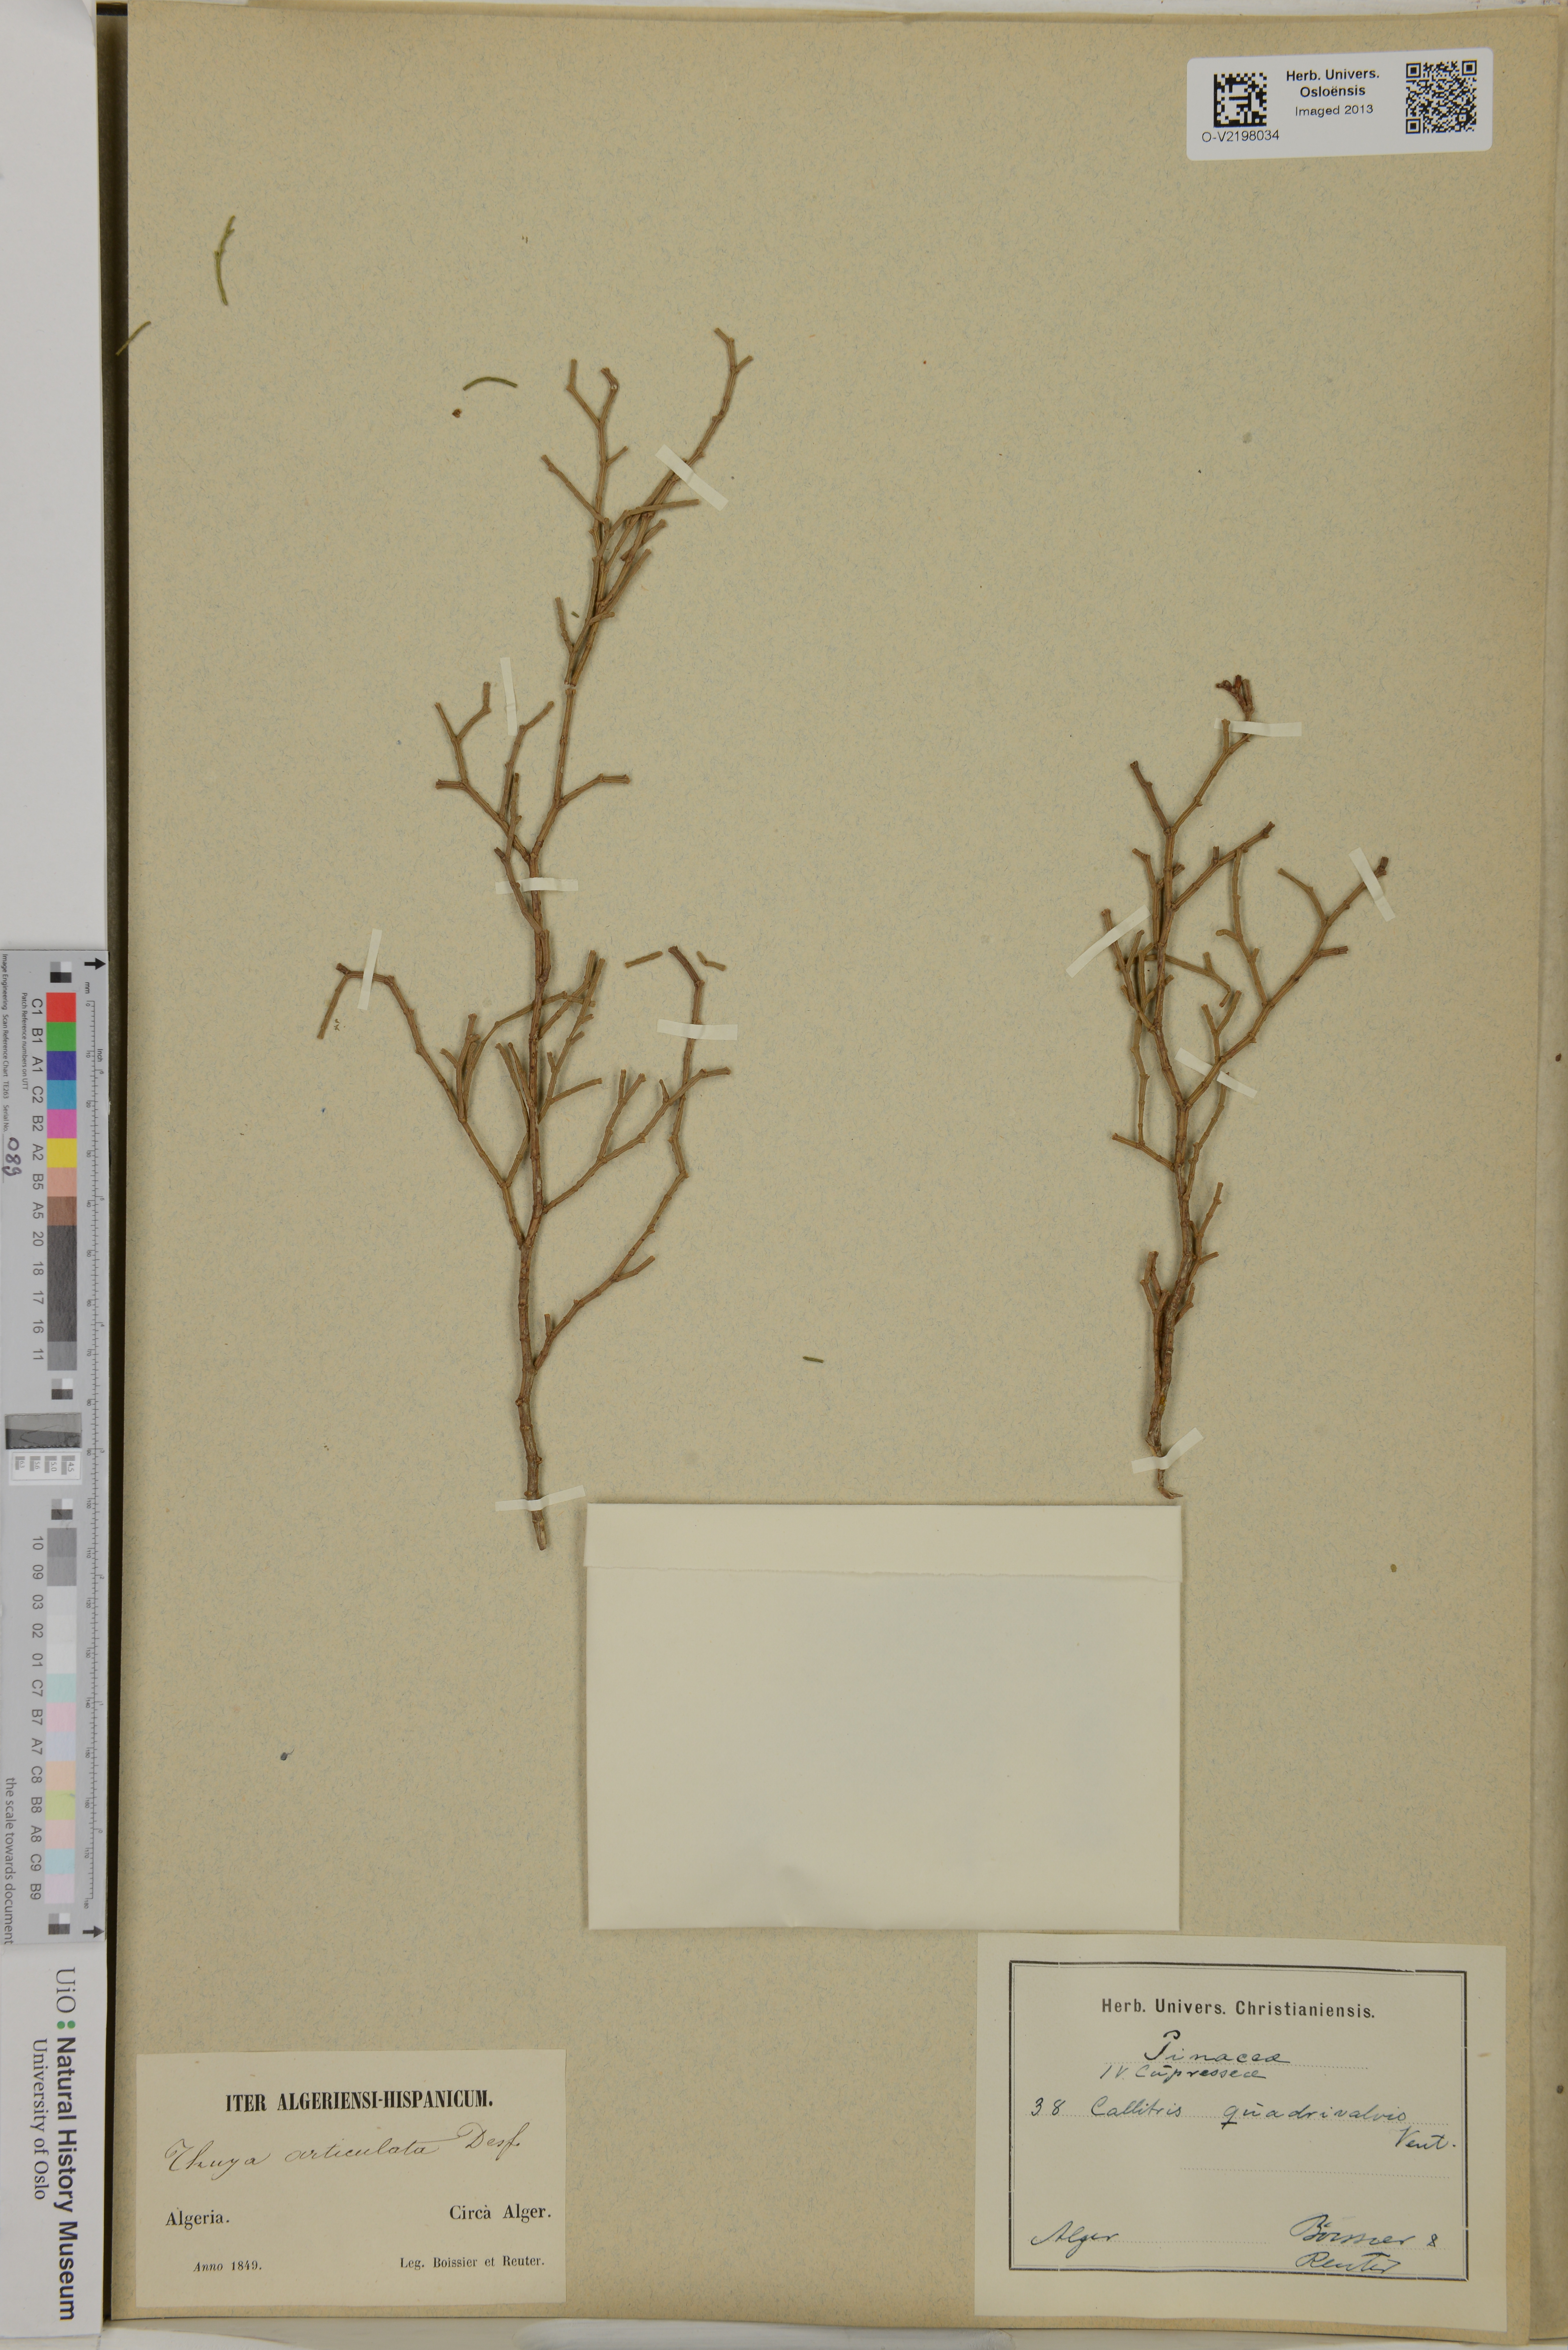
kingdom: Plantae
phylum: Tracheophyta
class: Pinopsida
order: Pinales
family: Cupressaceae
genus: Tetraclinis
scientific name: Tetraclinis articulata
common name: Sandarac
